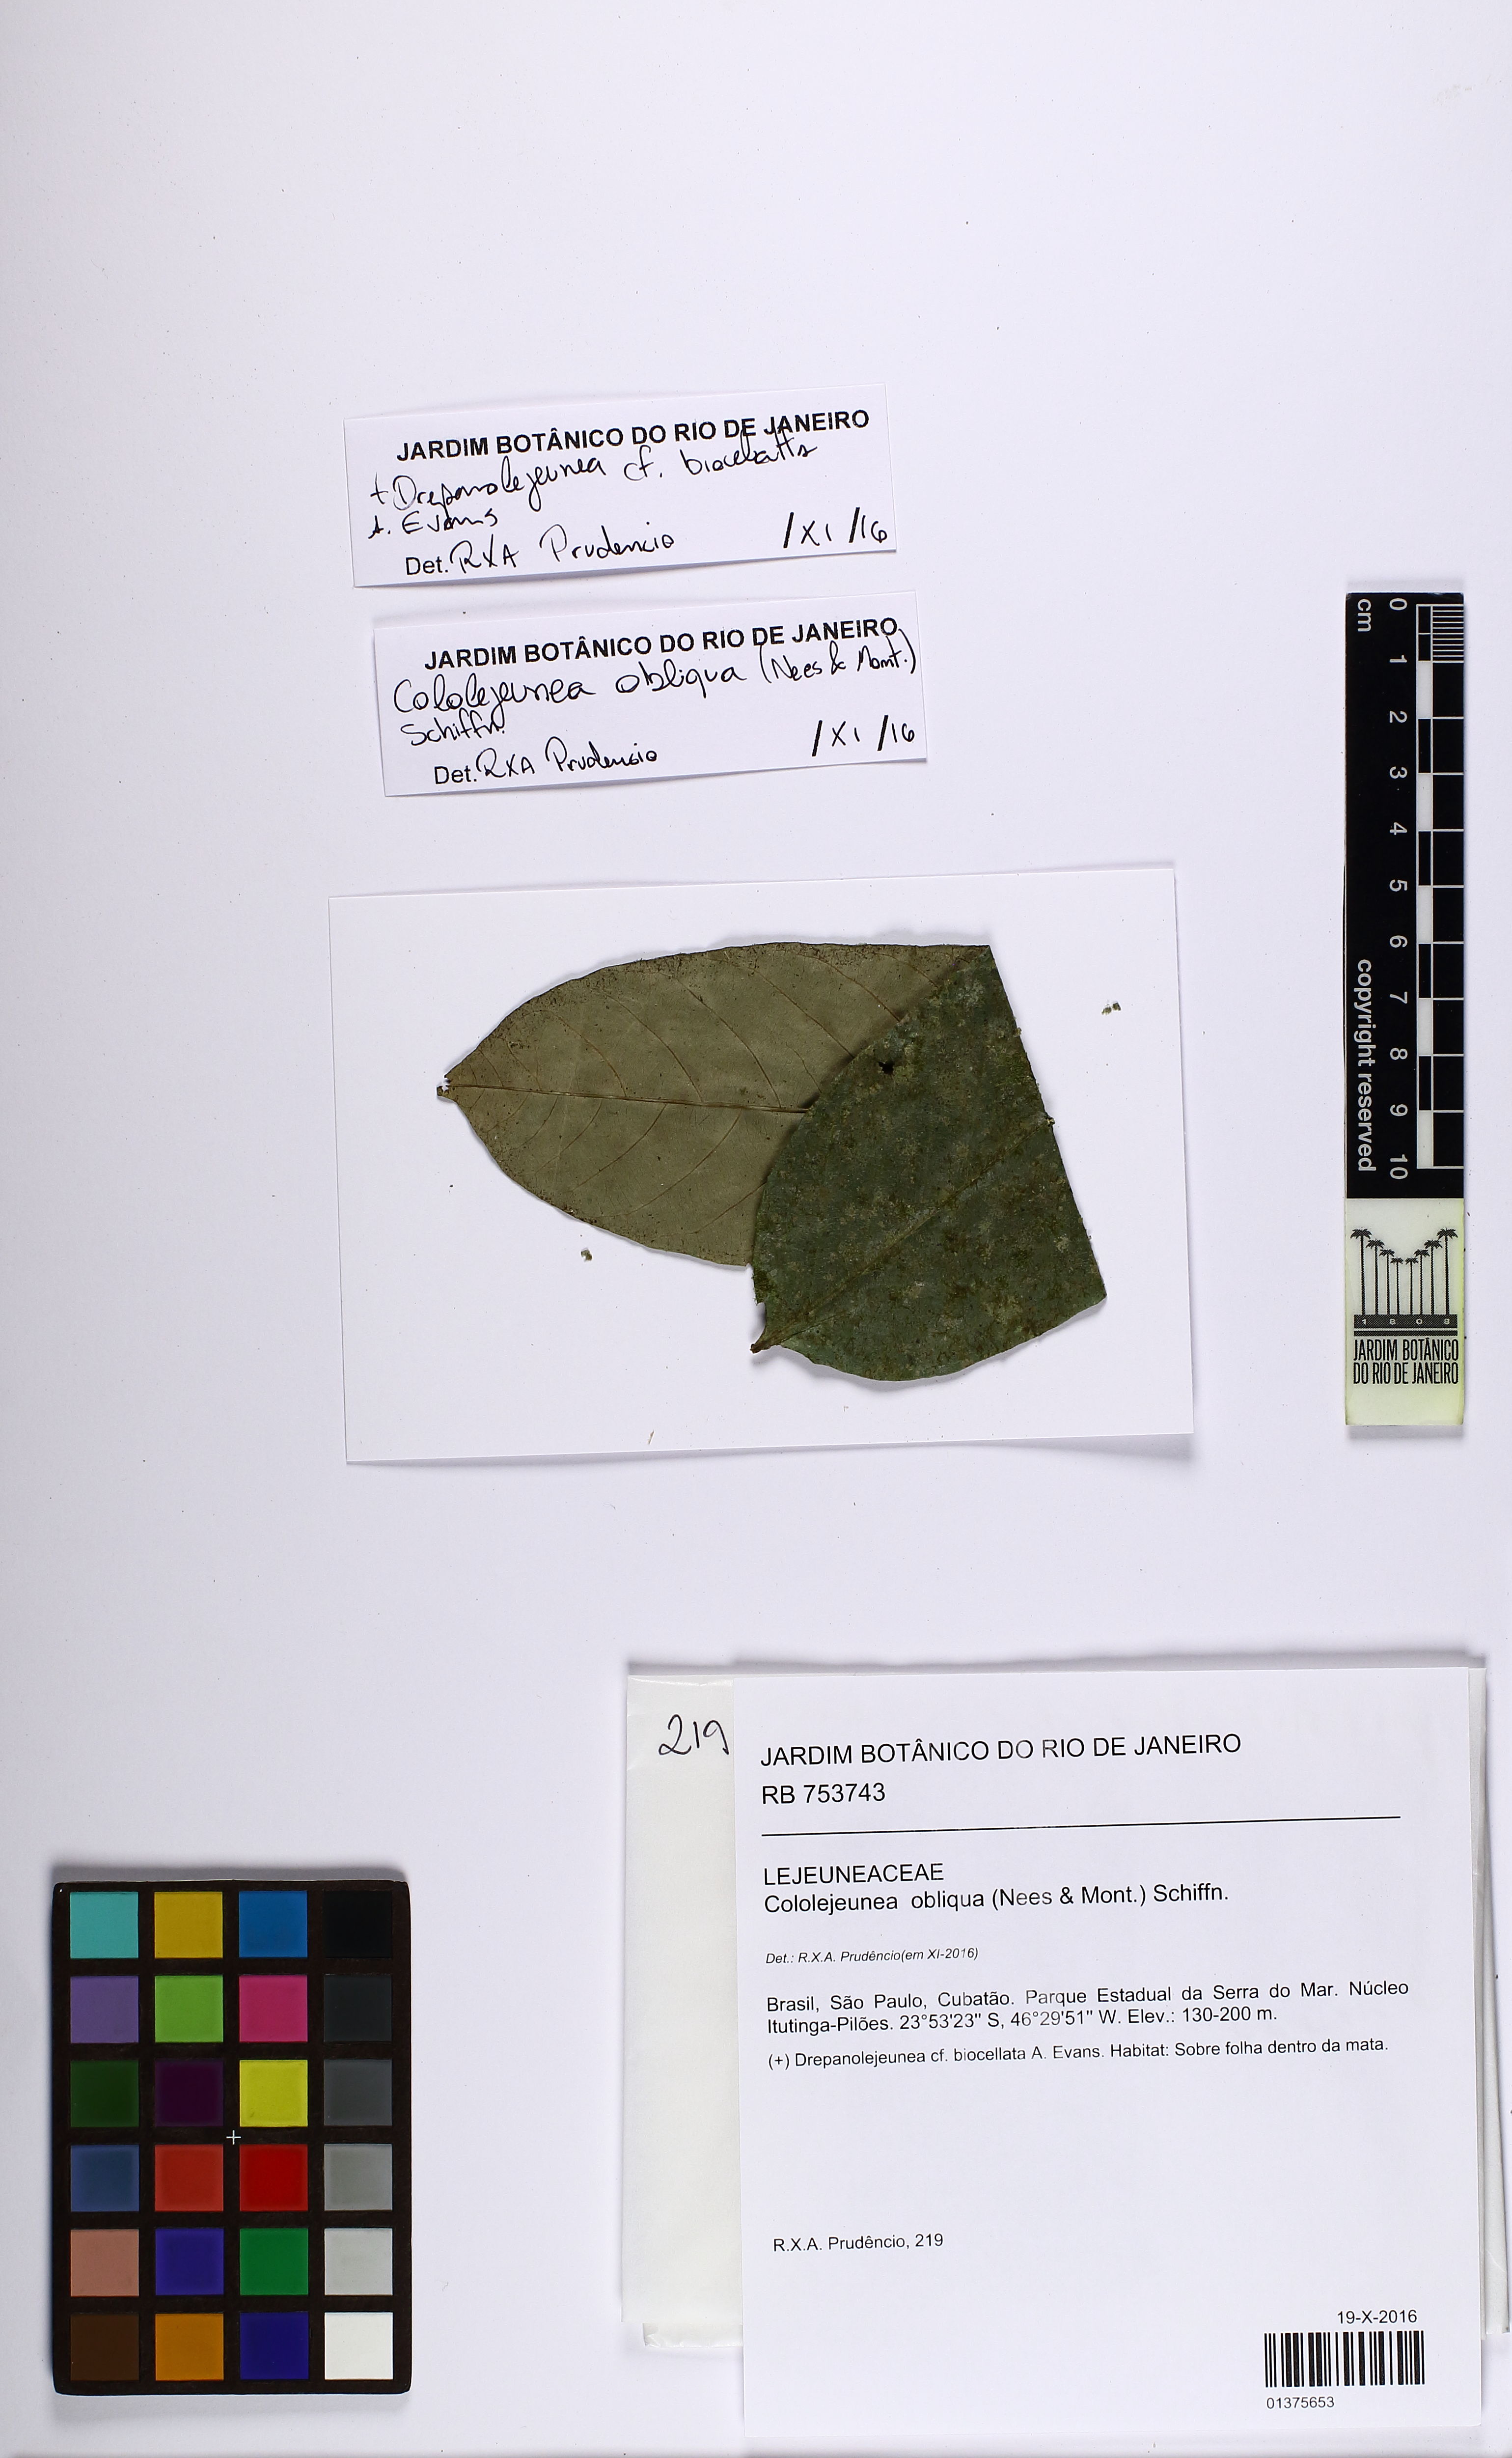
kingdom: Plantae
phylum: Marchantiophyta
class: Jungermanniopsida
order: Porellales
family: Lejeuneaceae
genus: Cololejeunea
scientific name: Cololejeunea obliqua
